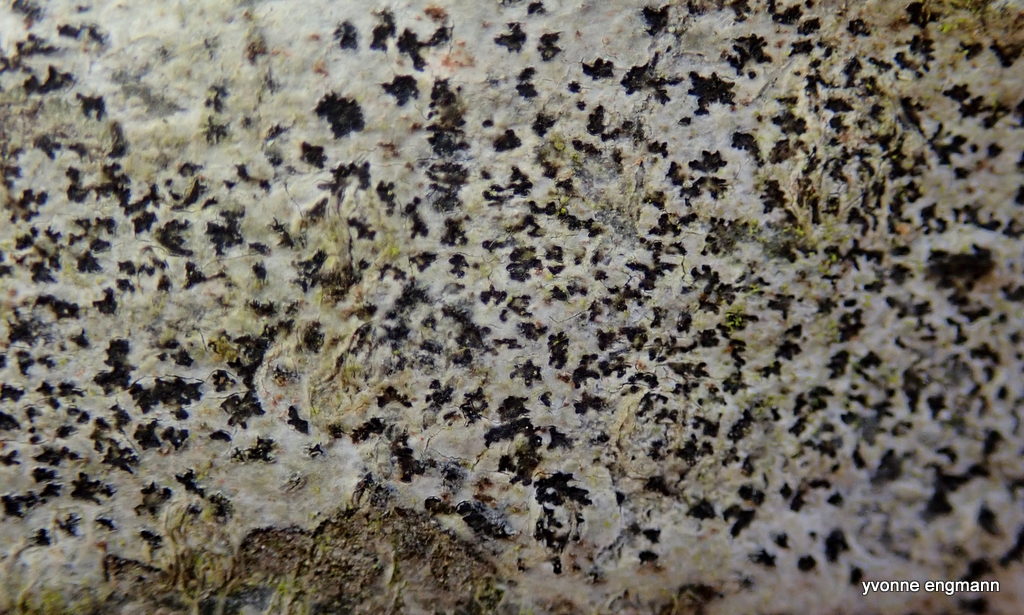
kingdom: Fungi
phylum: Ascomycota
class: Arthoniomycetes
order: Arthoniales
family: Arthoniaceae
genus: Arthonia
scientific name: Arthonia radiata
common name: stjerne-pletlav
